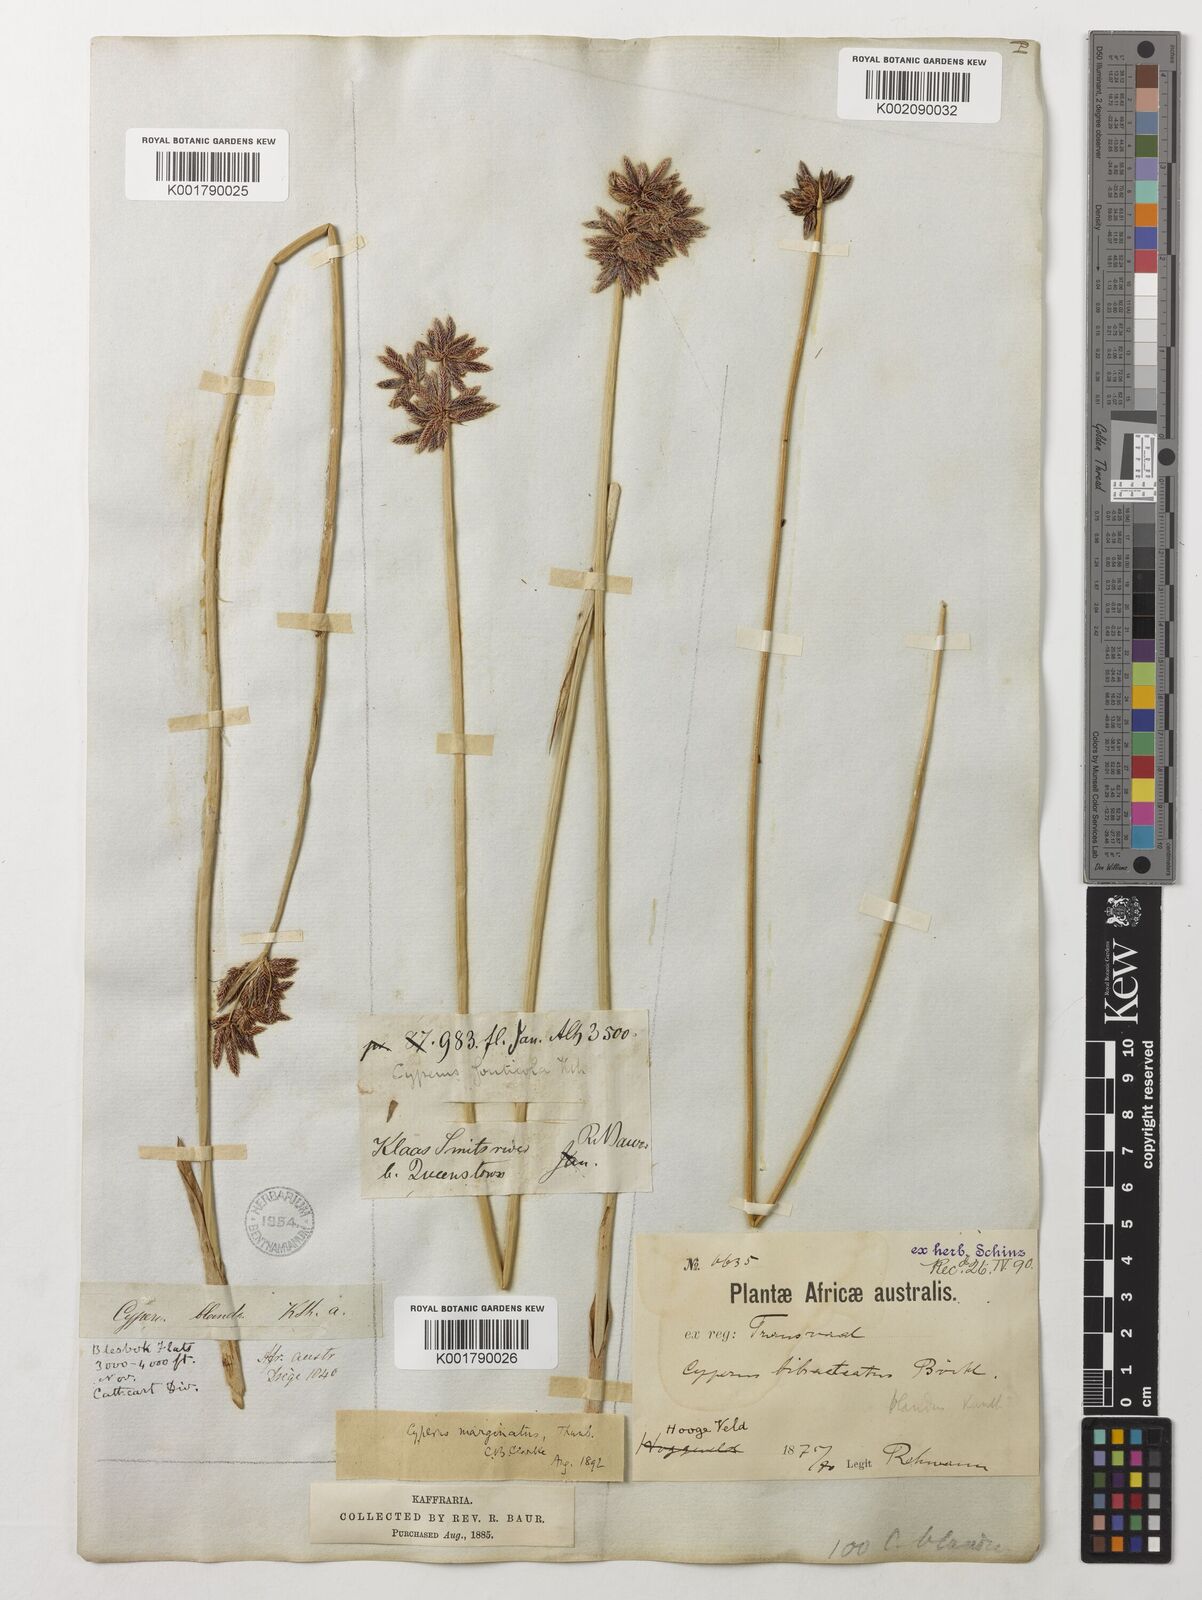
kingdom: Plantae
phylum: Tracheophyta
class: Liliopsida
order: Poales
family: Cyperaceae
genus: Cyperus
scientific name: Cyperus
